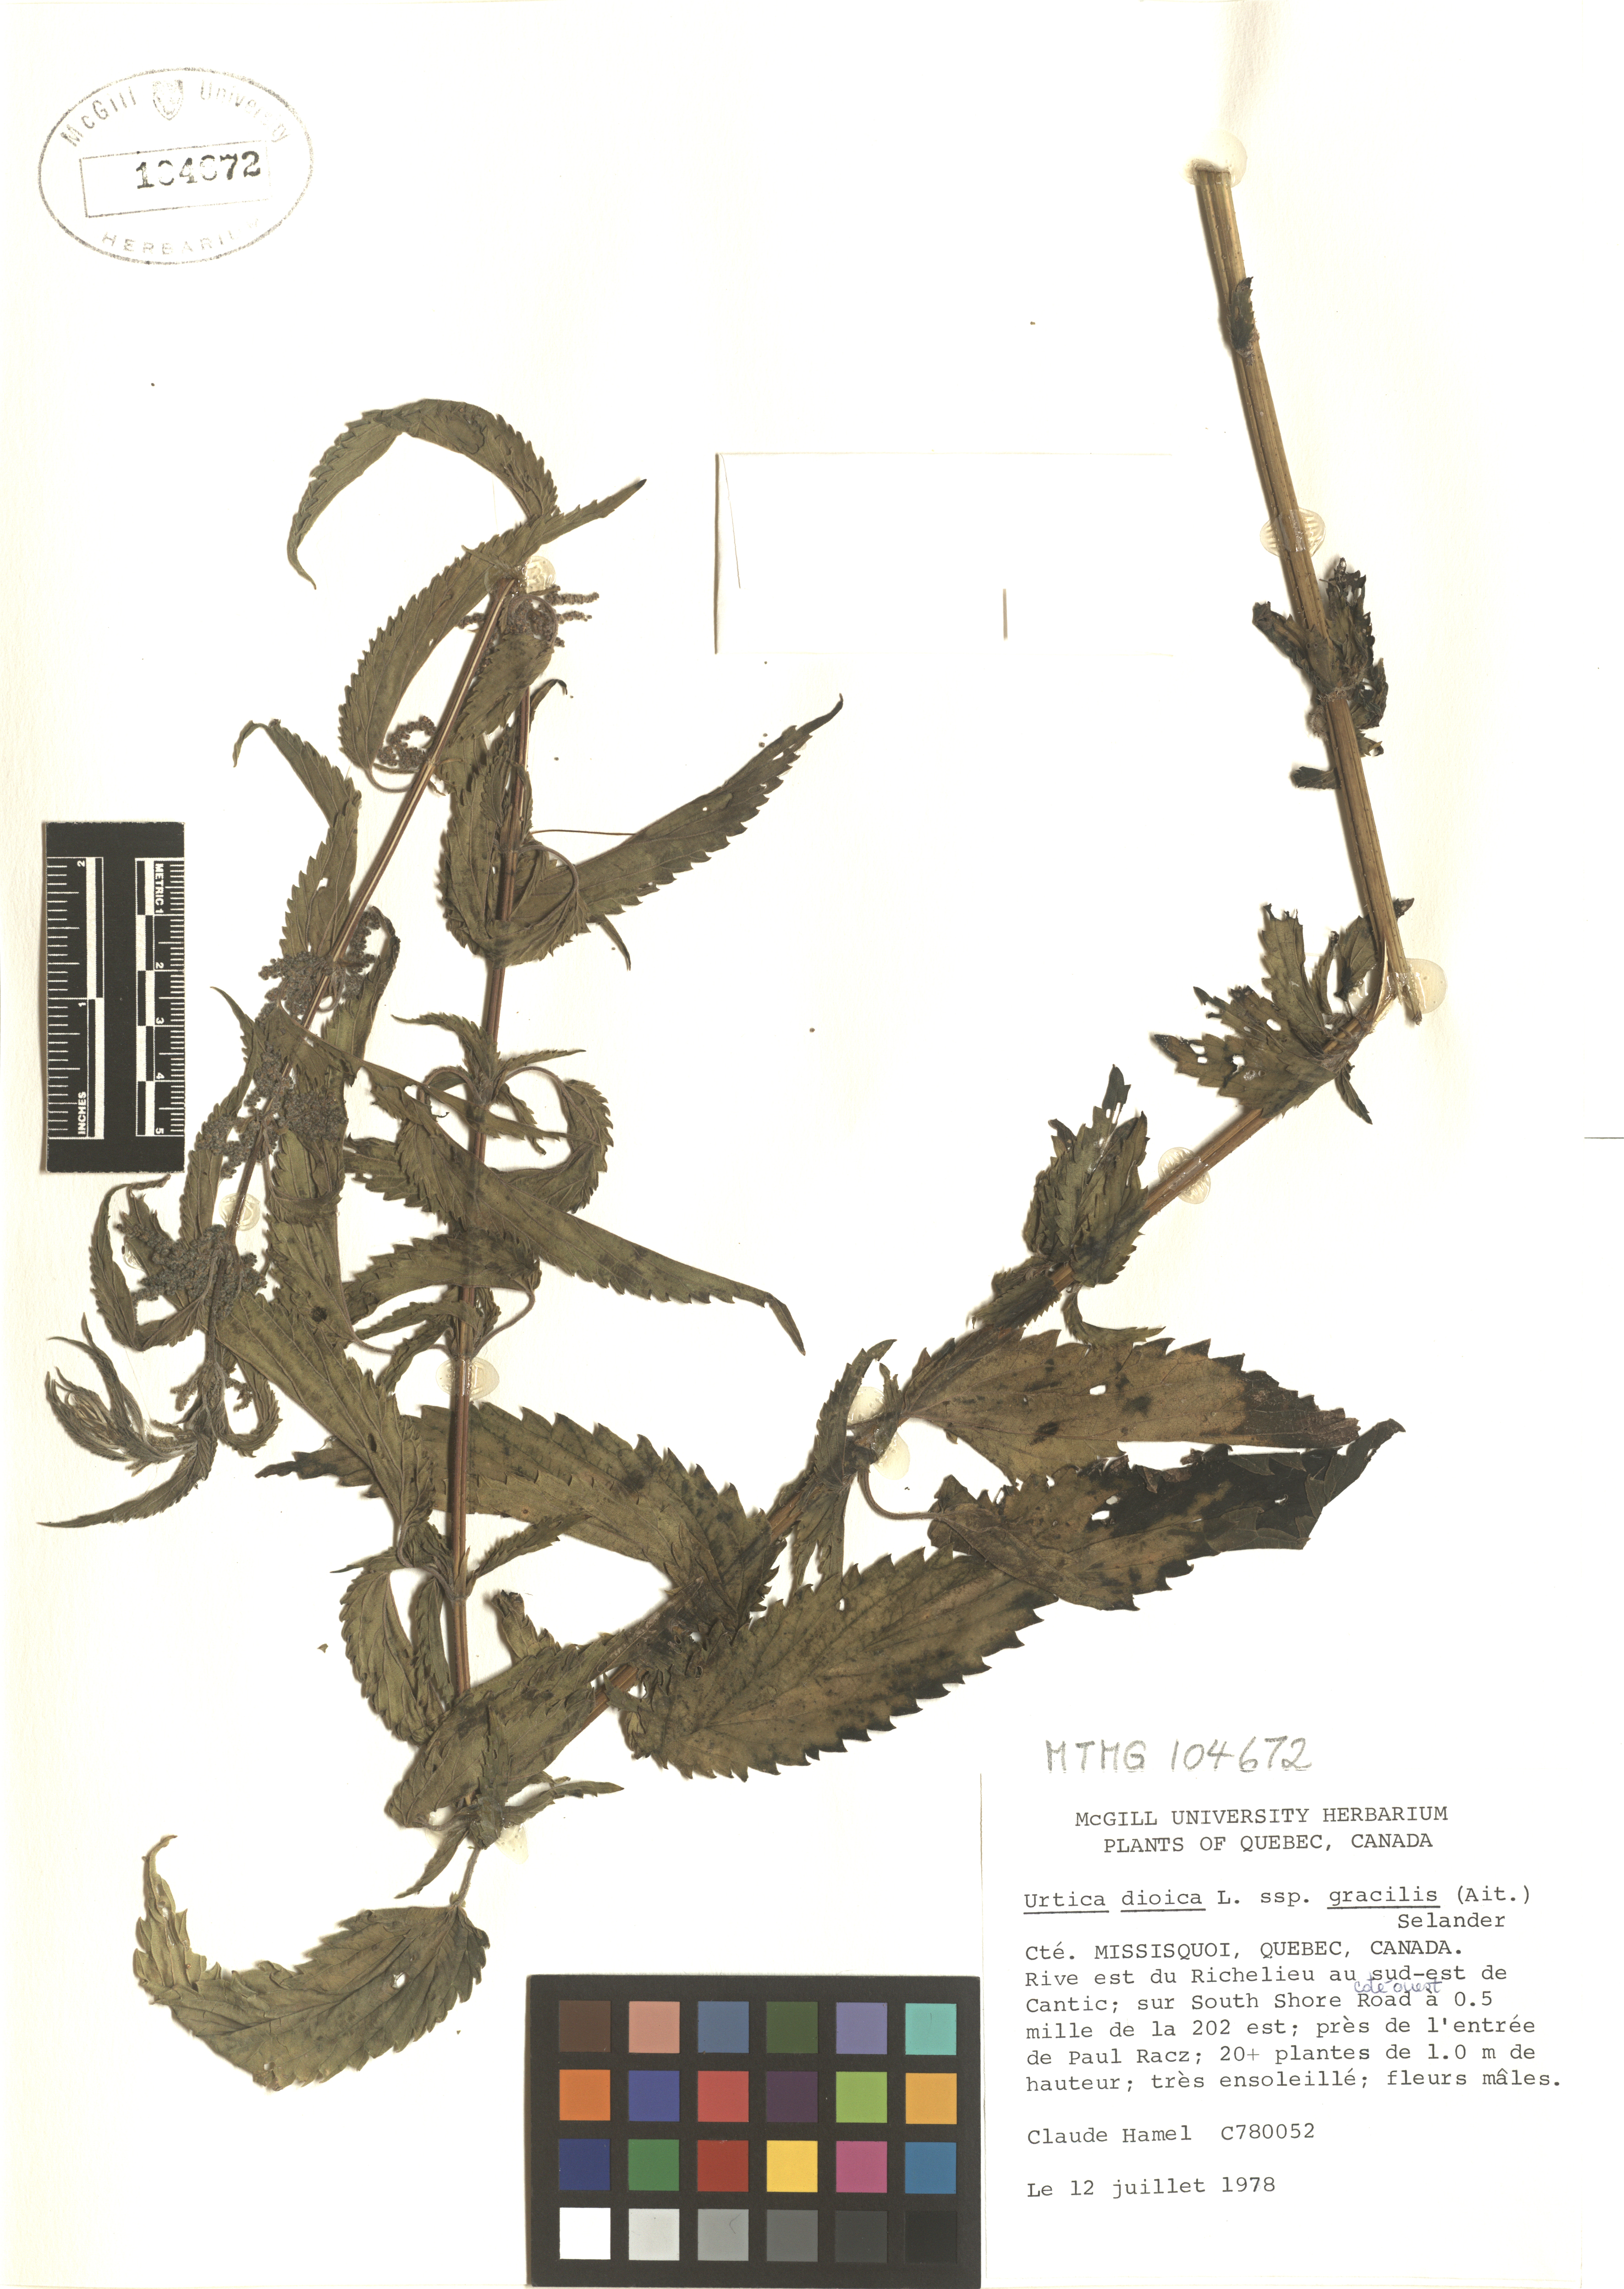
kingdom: Plantae
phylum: Tracheophyta
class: Magnoliopsida
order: Rosales
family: Urticaceae
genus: Urtica
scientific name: Urtica gracilis
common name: Slender stinging nettle
